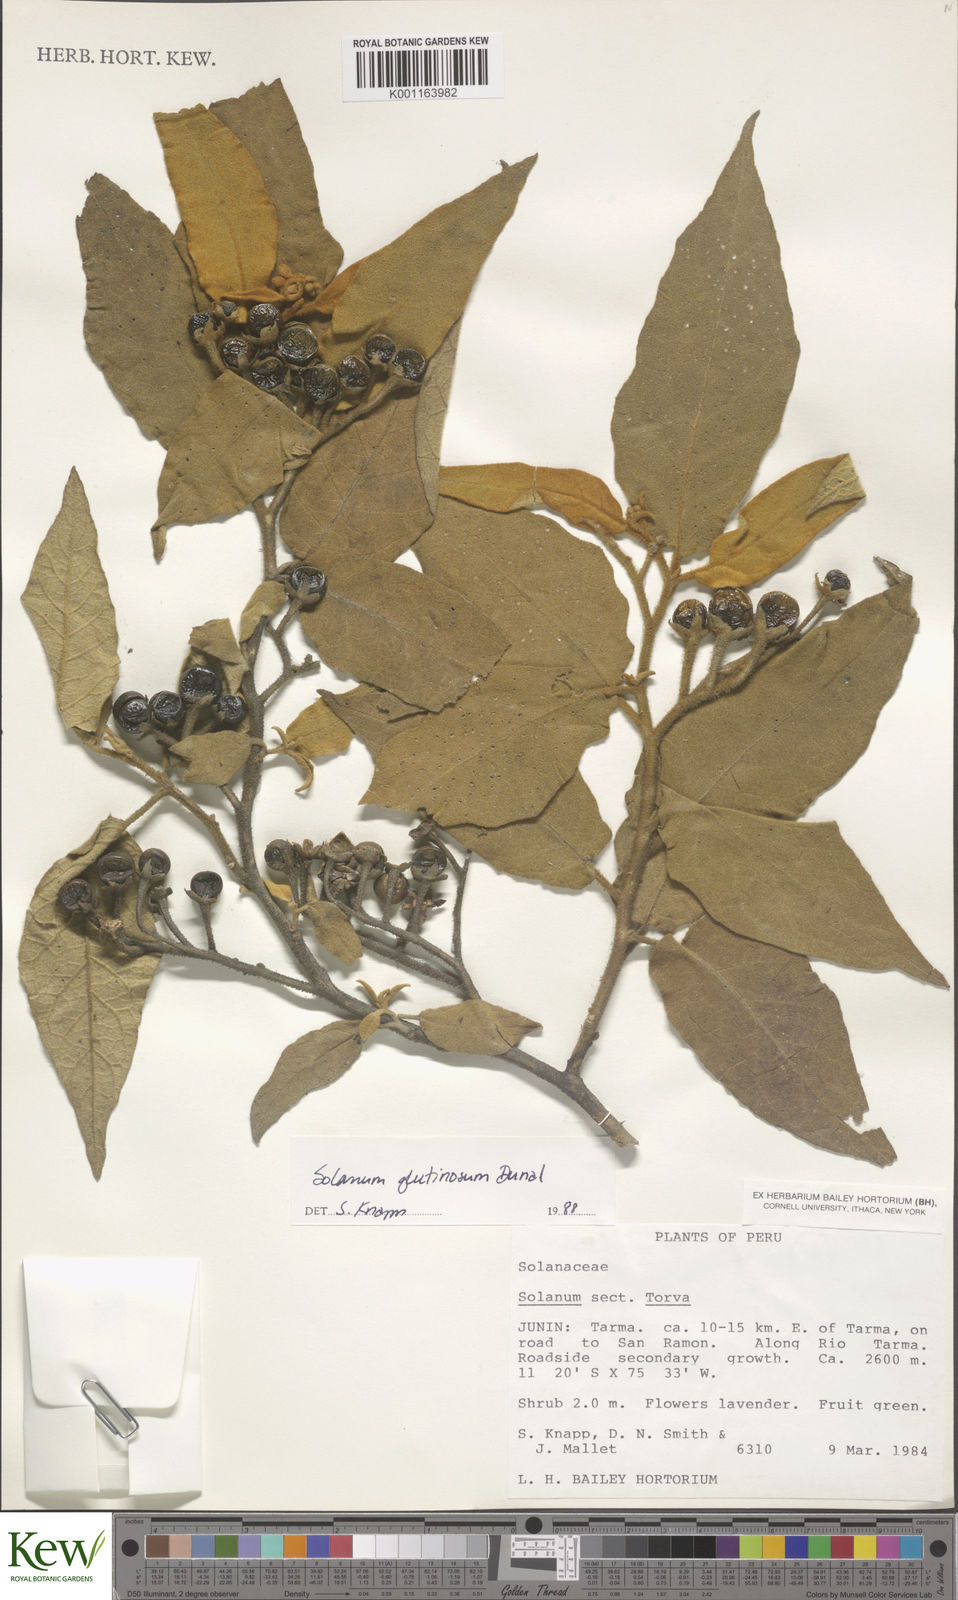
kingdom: Plantae
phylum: Tracheophyta
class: Magnoliopsida
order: Solanales
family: Solanaceae
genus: Solanum
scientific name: Solanum glutinosum
